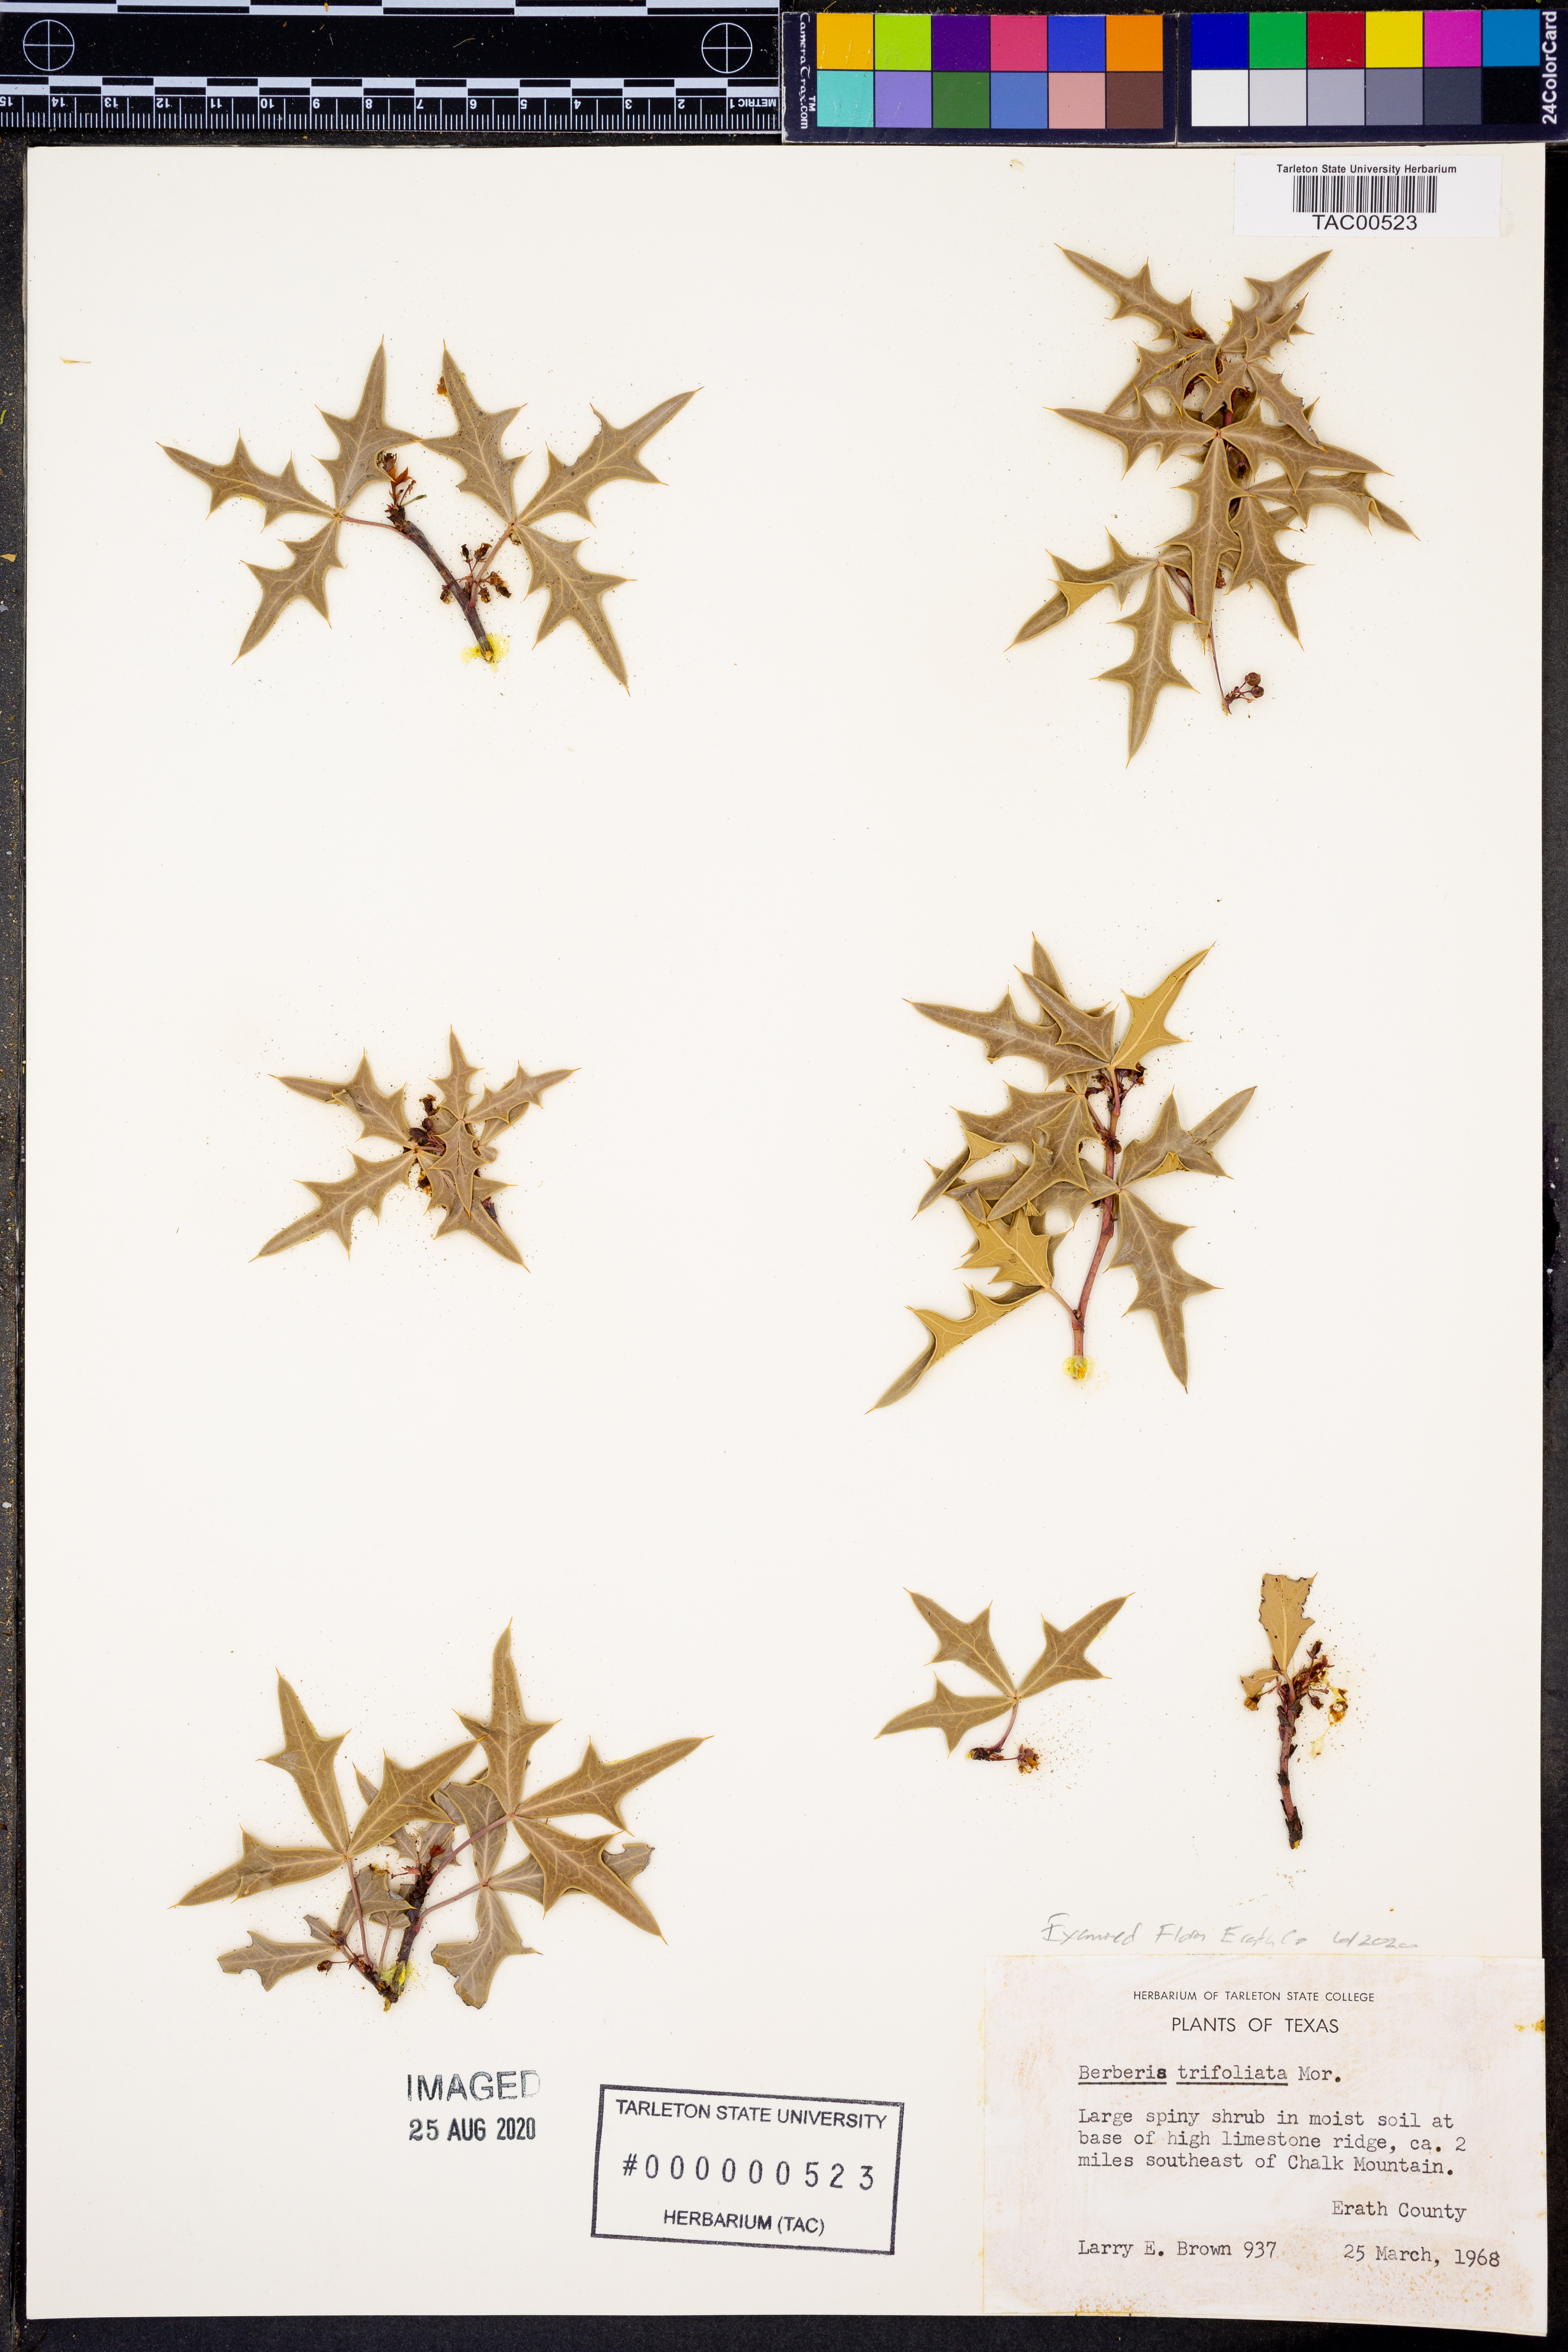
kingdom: Plantae
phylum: Tracheophyta
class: Magnoliopsida
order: Ranunculales
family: Berberidaceae
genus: Alloberberis
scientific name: Alloberberis trifoliolata
